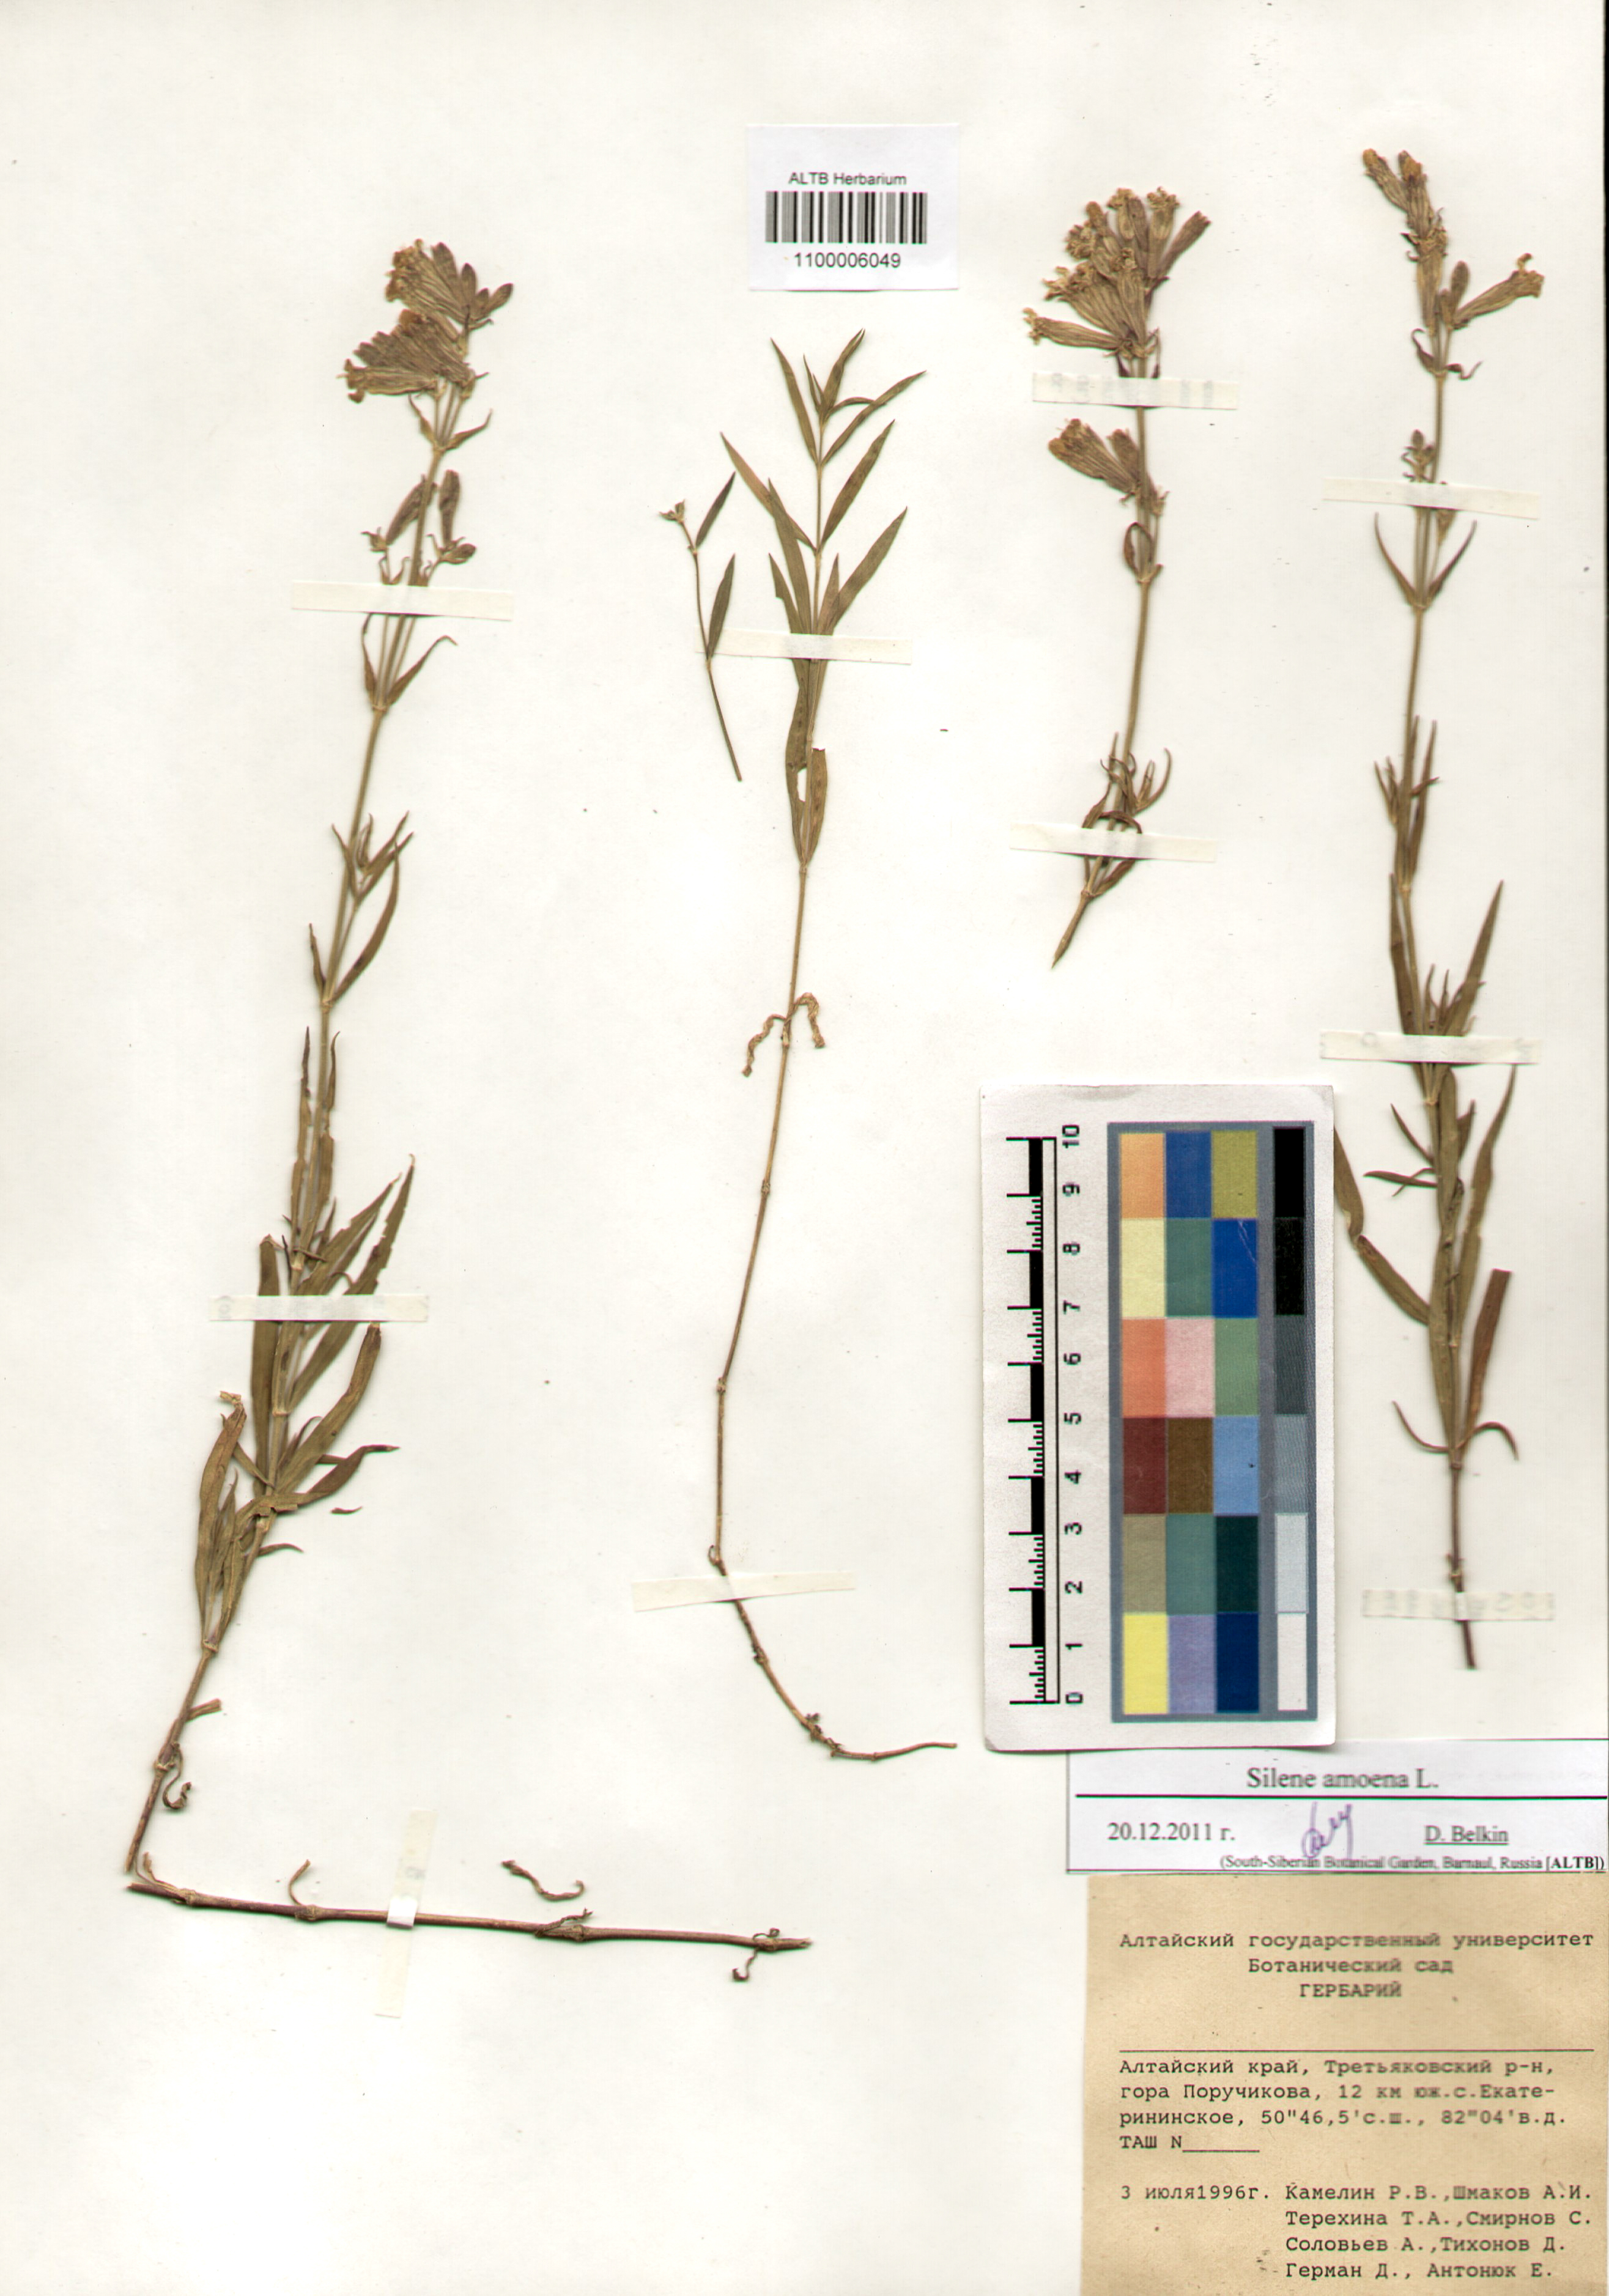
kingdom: Plantae
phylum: Tracheophyta
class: Magnoliopsida
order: Caryophyllales
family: Caryophyllaceae
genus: Silene
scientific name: Silene amoena
